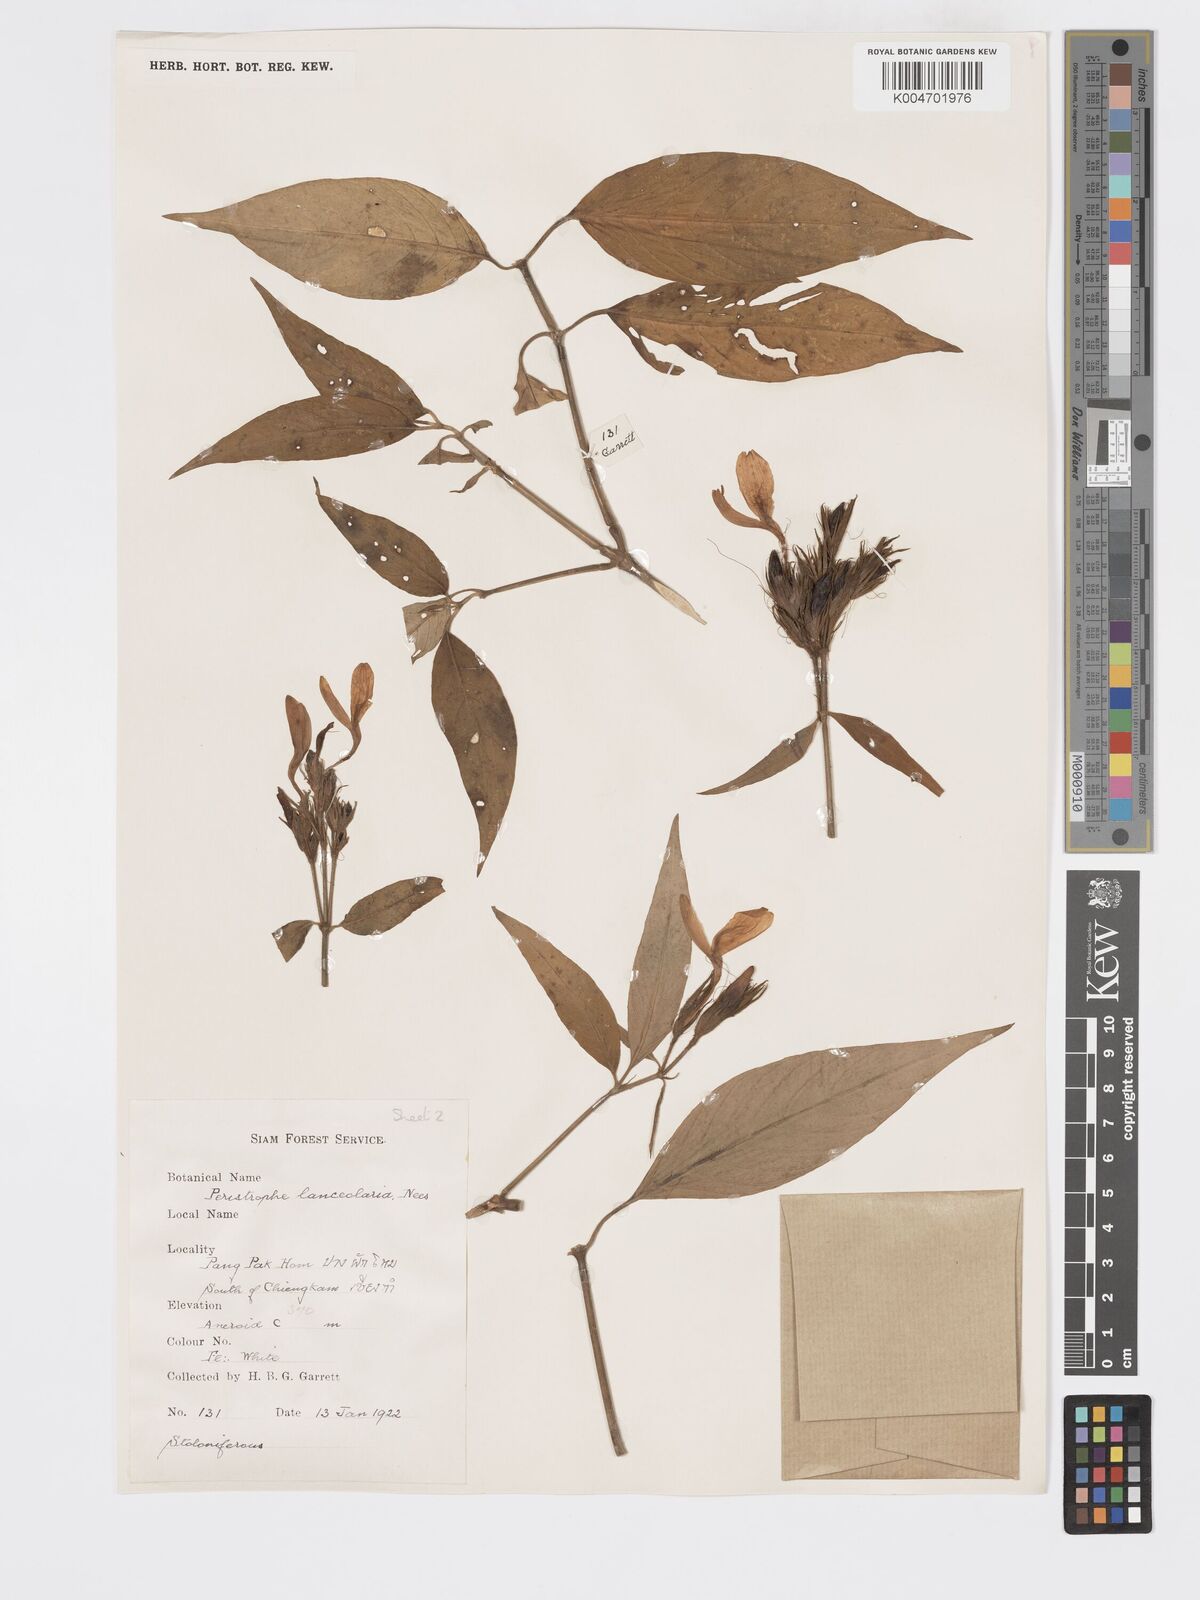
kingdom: Plantae
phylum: Tracheophyta
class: Magnoliopsida
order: Lamiales
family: Acanthaceae
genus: Dicliptera
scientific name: Dicliptera lanceolaria
